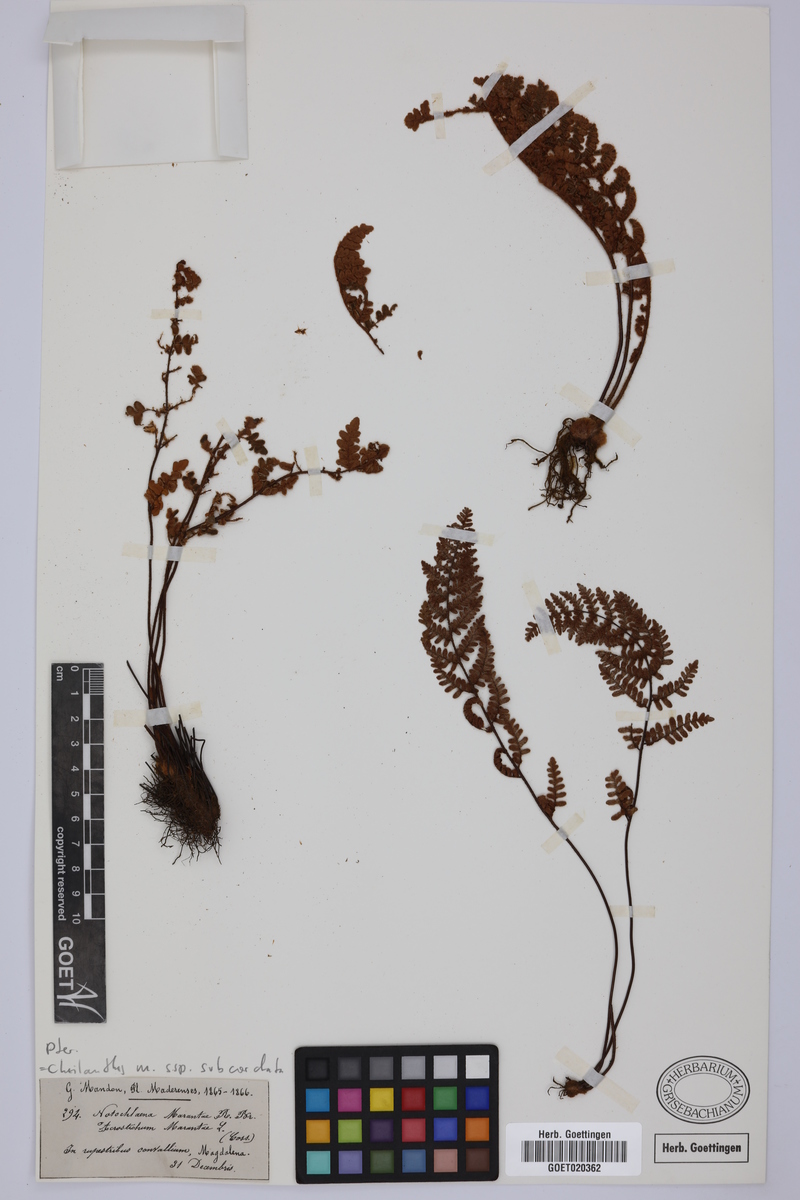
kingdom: Plantae
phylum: Tracheophyta
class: Polypodiopsida
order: Polypodiales
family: Pteridaceae
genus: Paragymnopteris
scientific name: Paragymnopteris marantae
